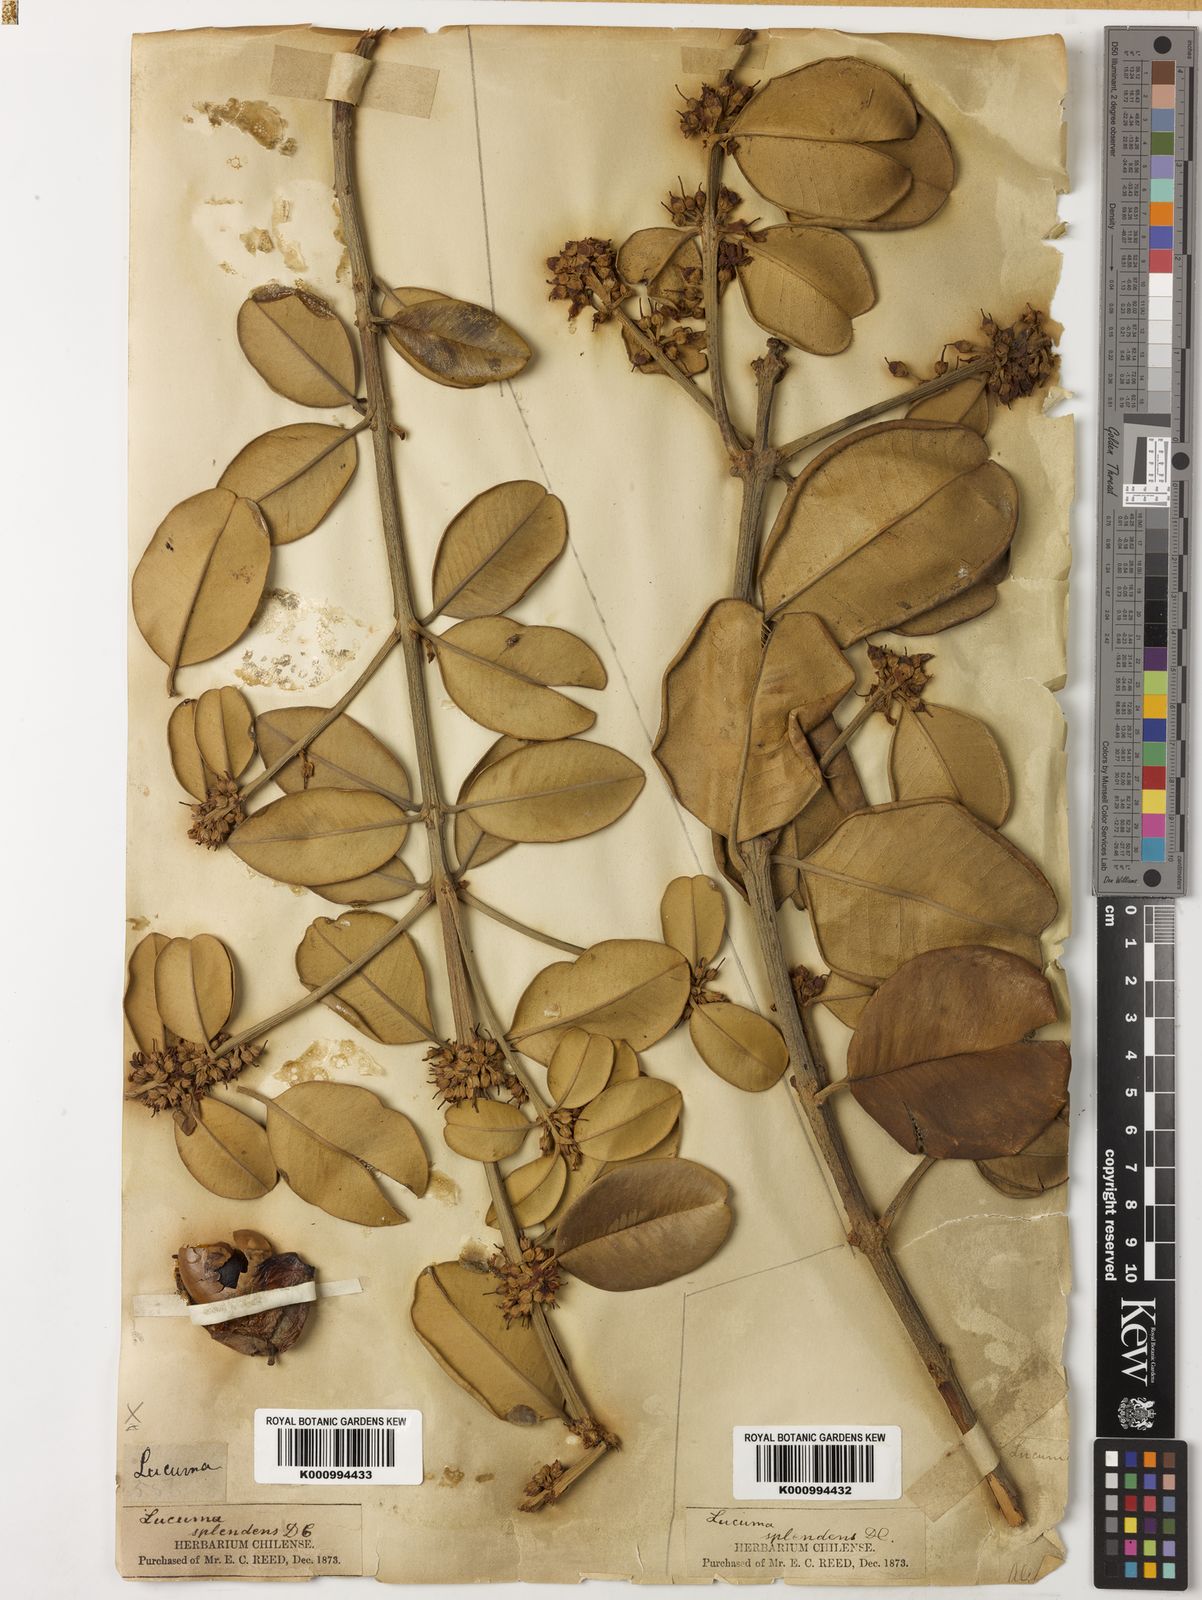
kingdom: Plantae
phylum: Tracheophyta
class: Magnoliopsida
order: Ericales
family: Sapotaceae
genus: Pouteria
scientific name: Pouteria valparadisaea
